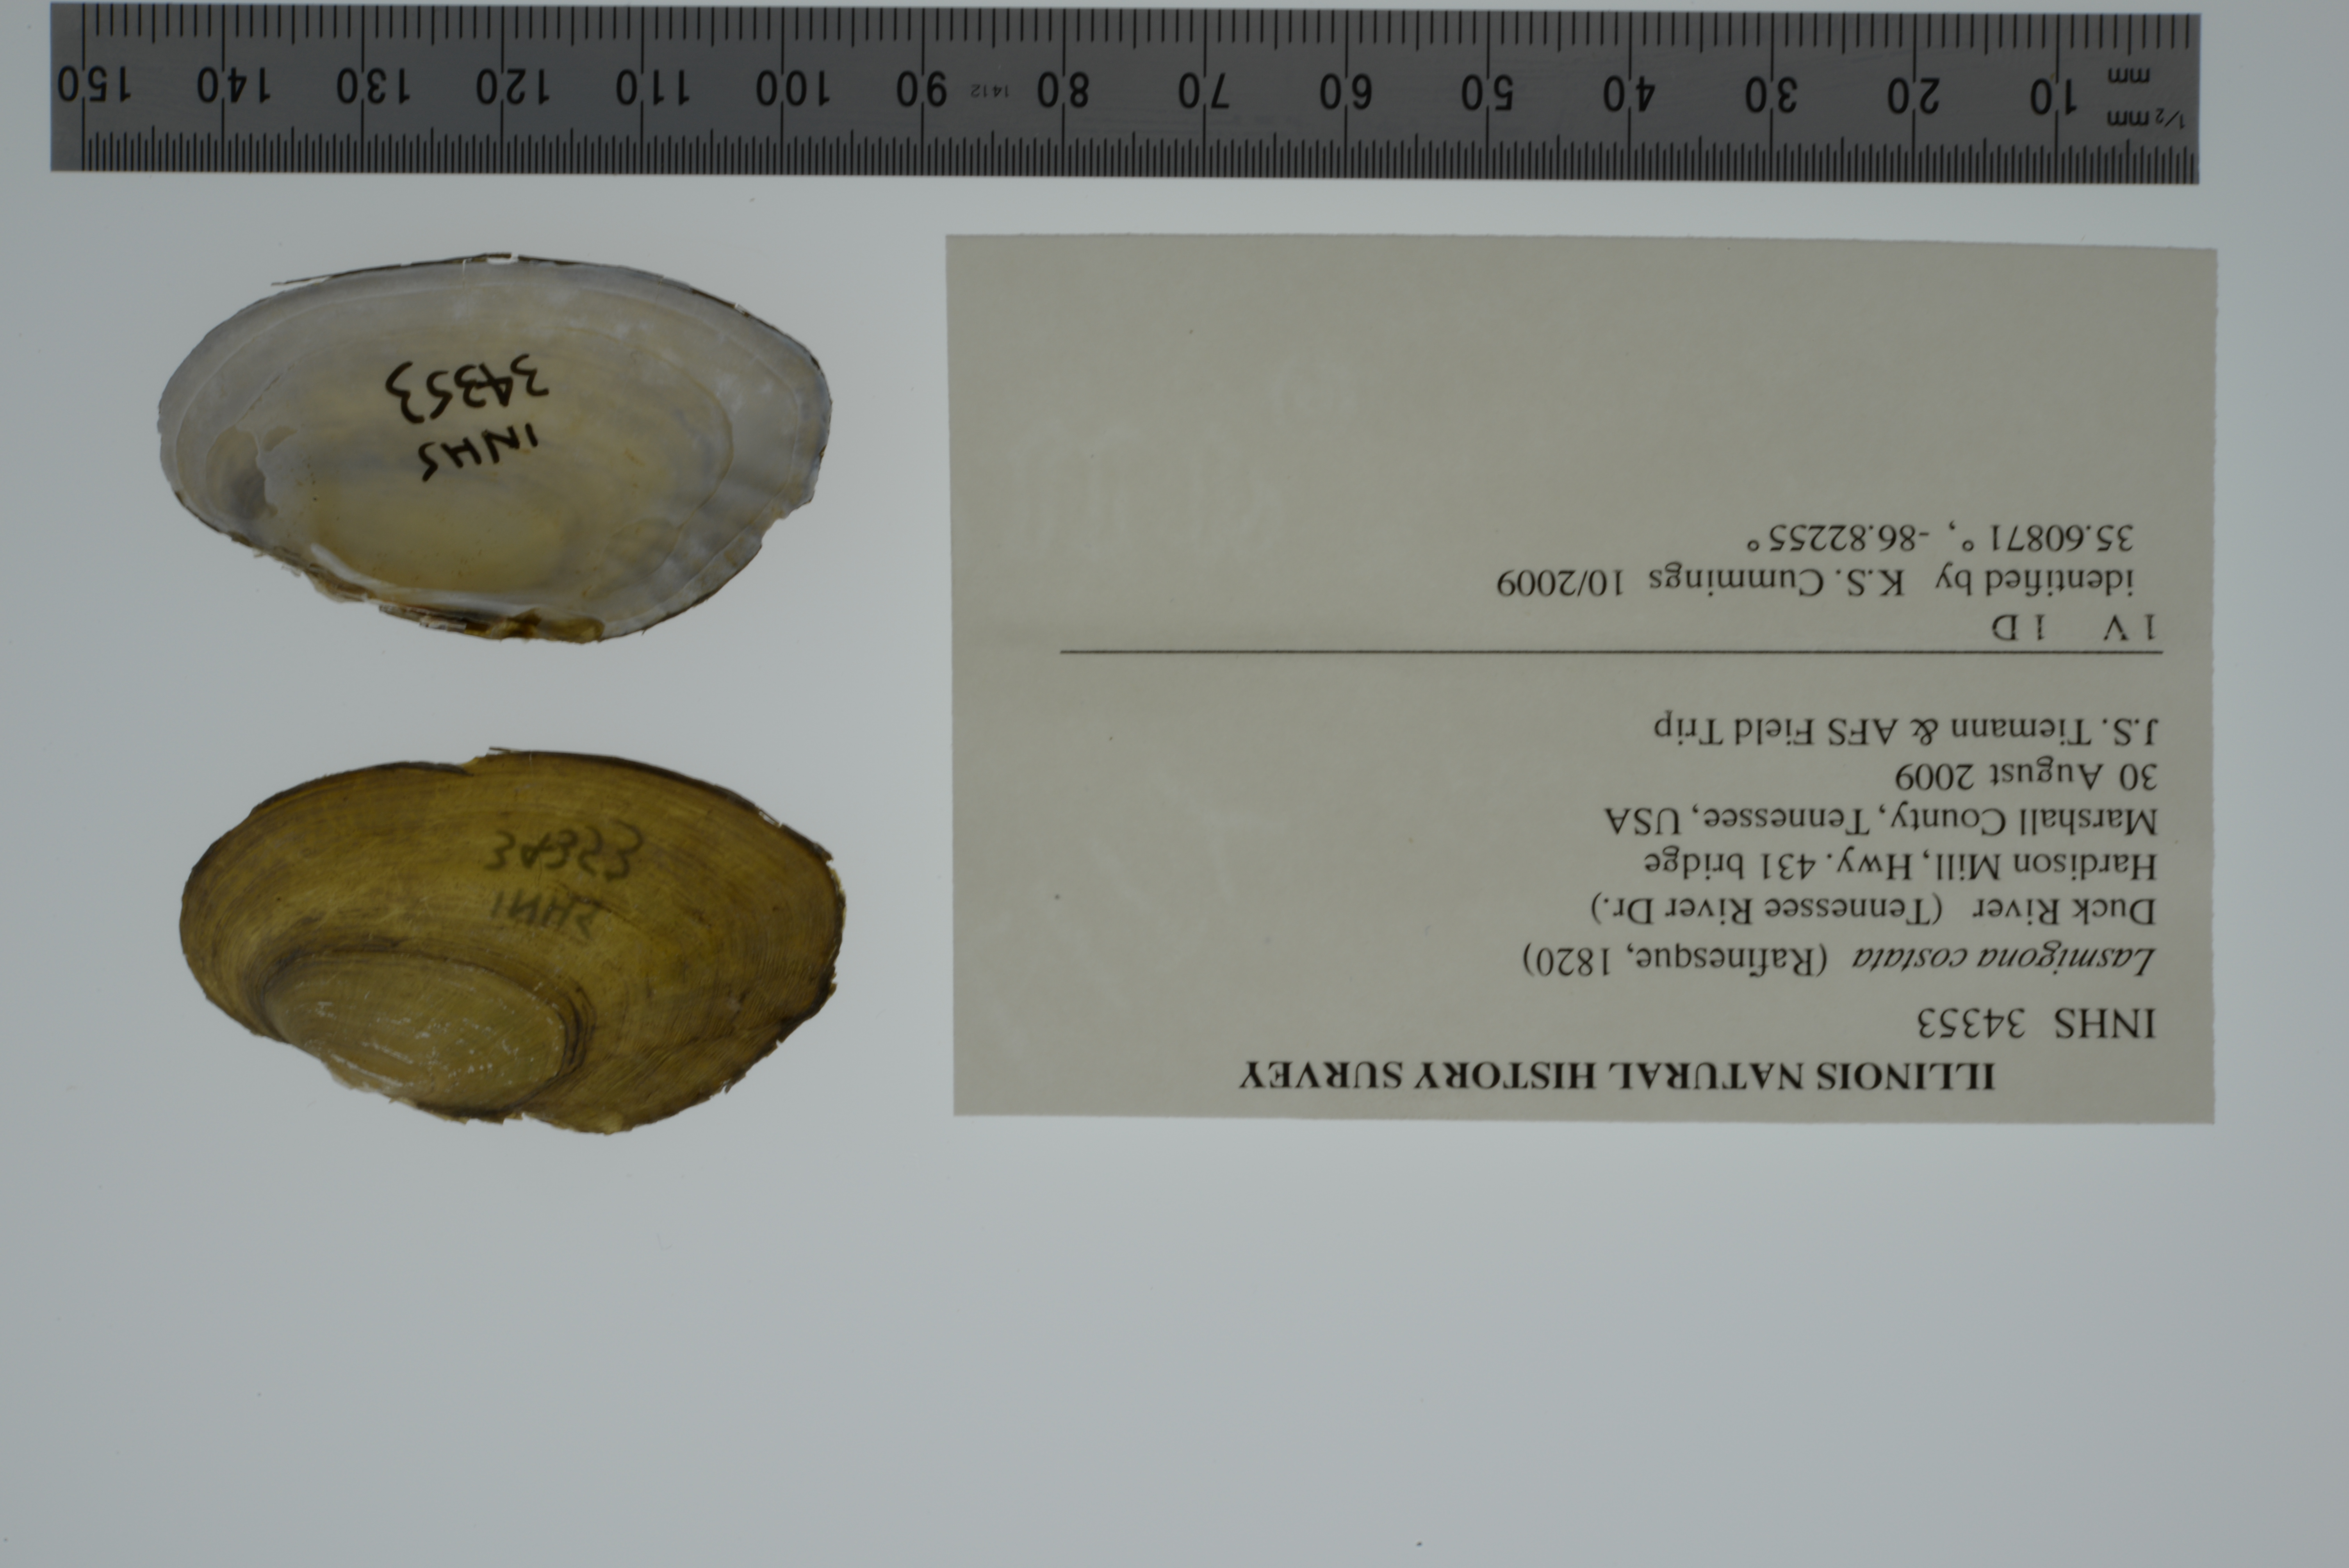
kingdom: Animalia
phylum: Mollusca
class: Bivalvia
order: Unionida
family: Unionidae
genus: Lasmigona
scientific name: Lasmigona costata
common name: Flutedshell
